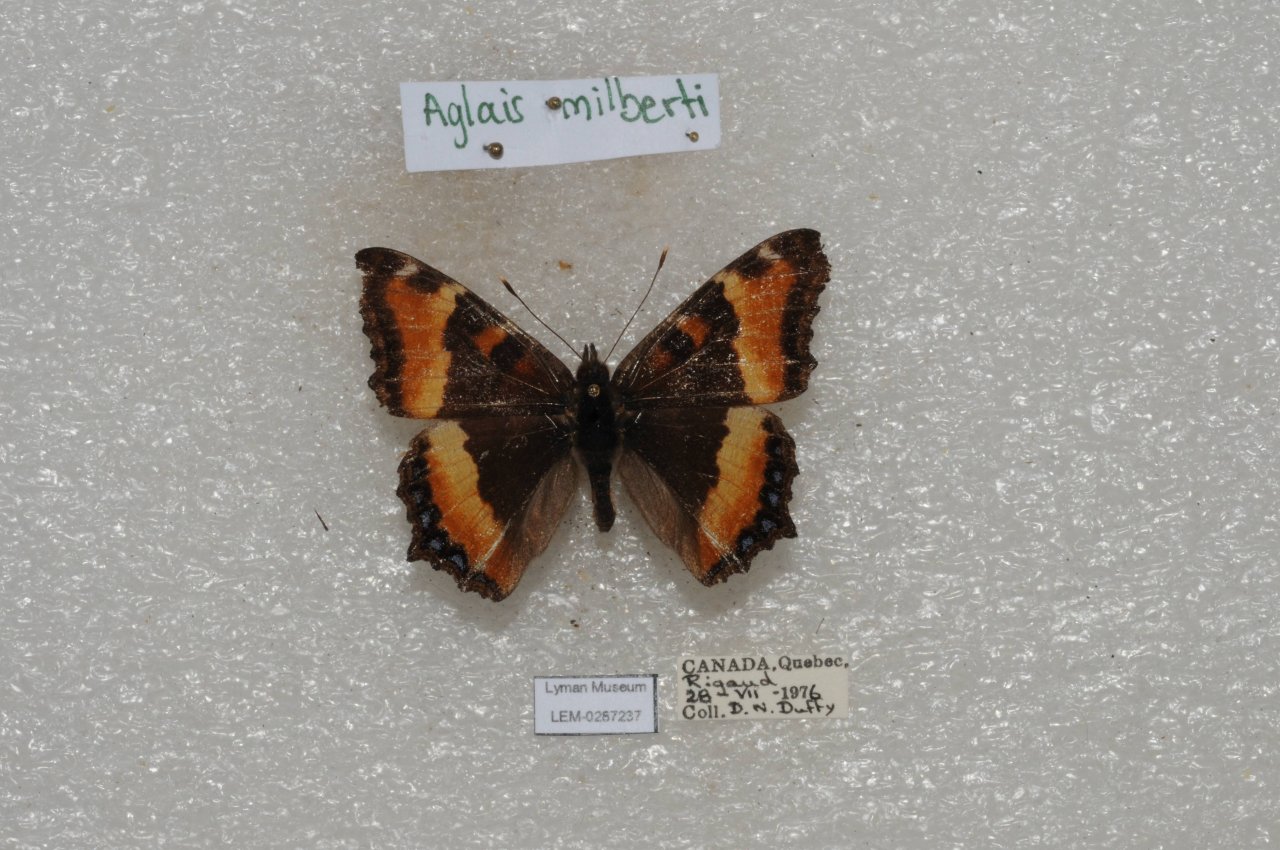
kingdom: Animalia
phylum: Arthropoda
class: Insecta
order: Lepidoptera
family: Nymphalidae
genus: Aglais
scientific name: Aglais milberti
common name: Milbert's Tortoiseshell
